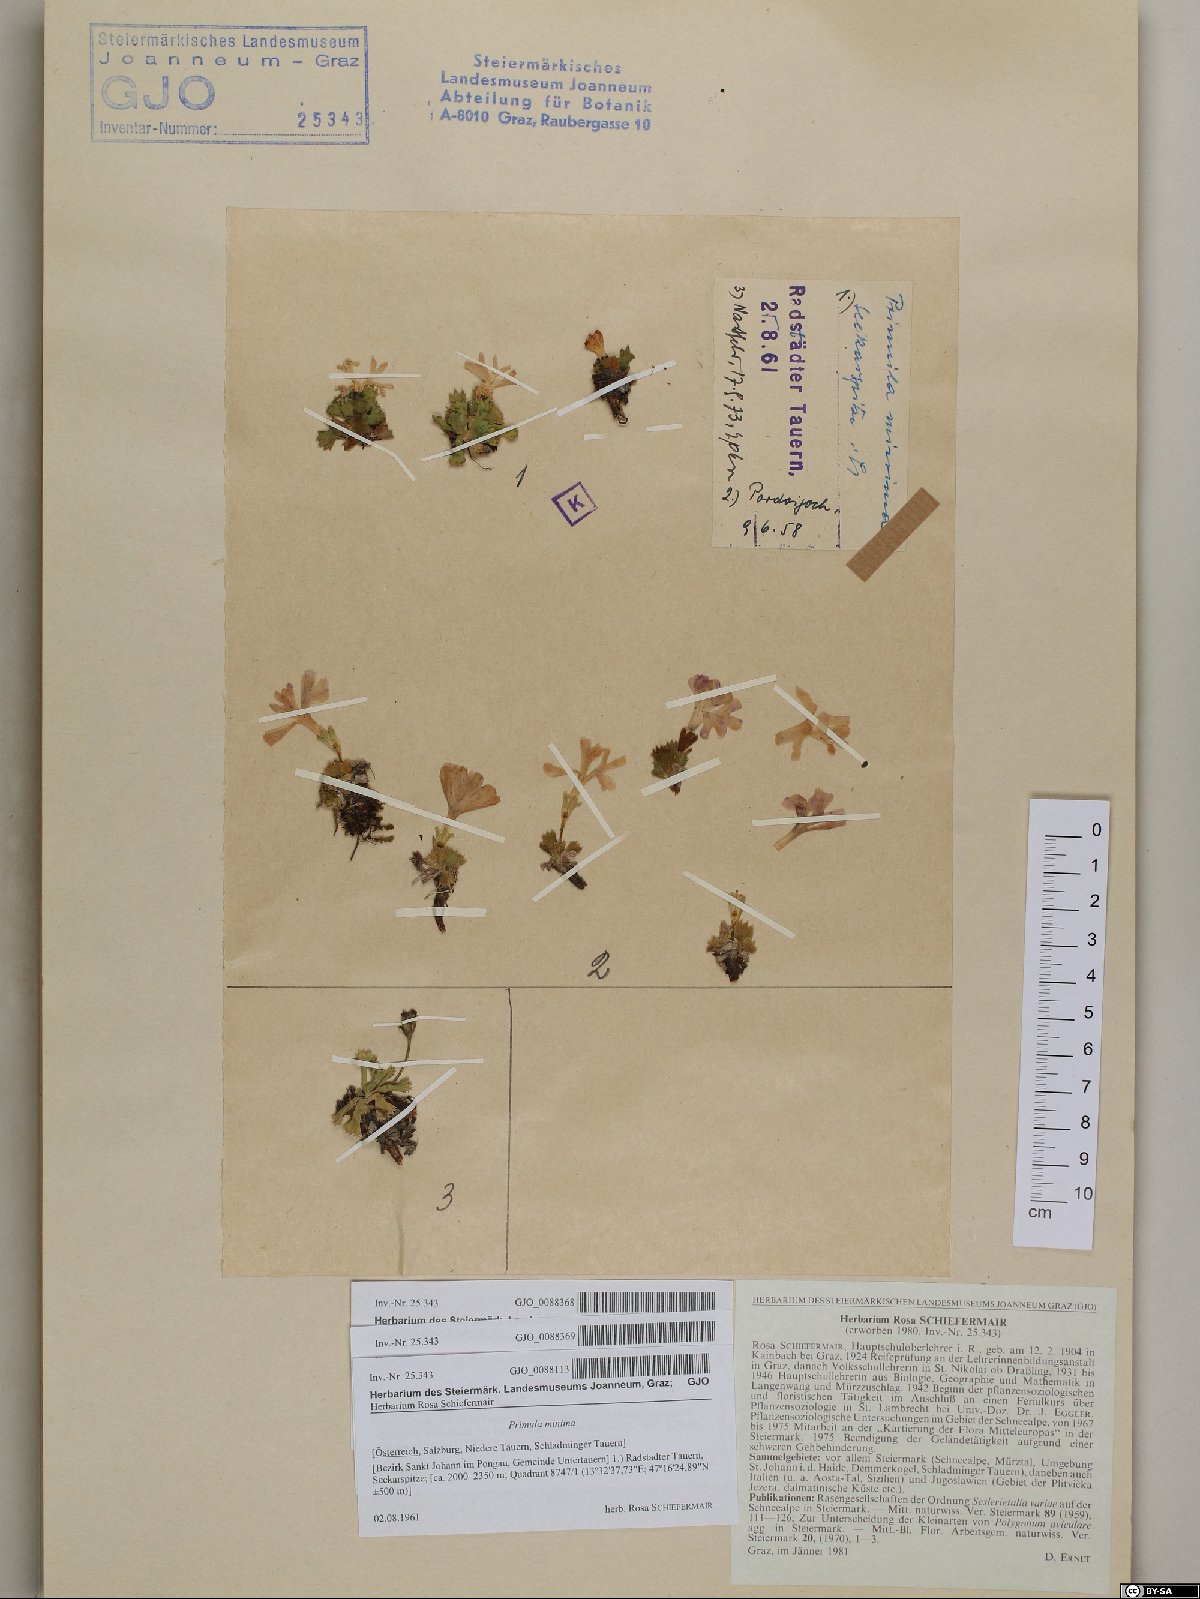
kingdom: Plantae
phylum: Tracheophyta
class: Magnoliopsida
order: Ericales
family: Primulaceae
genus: Primula
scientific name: Primula minima
